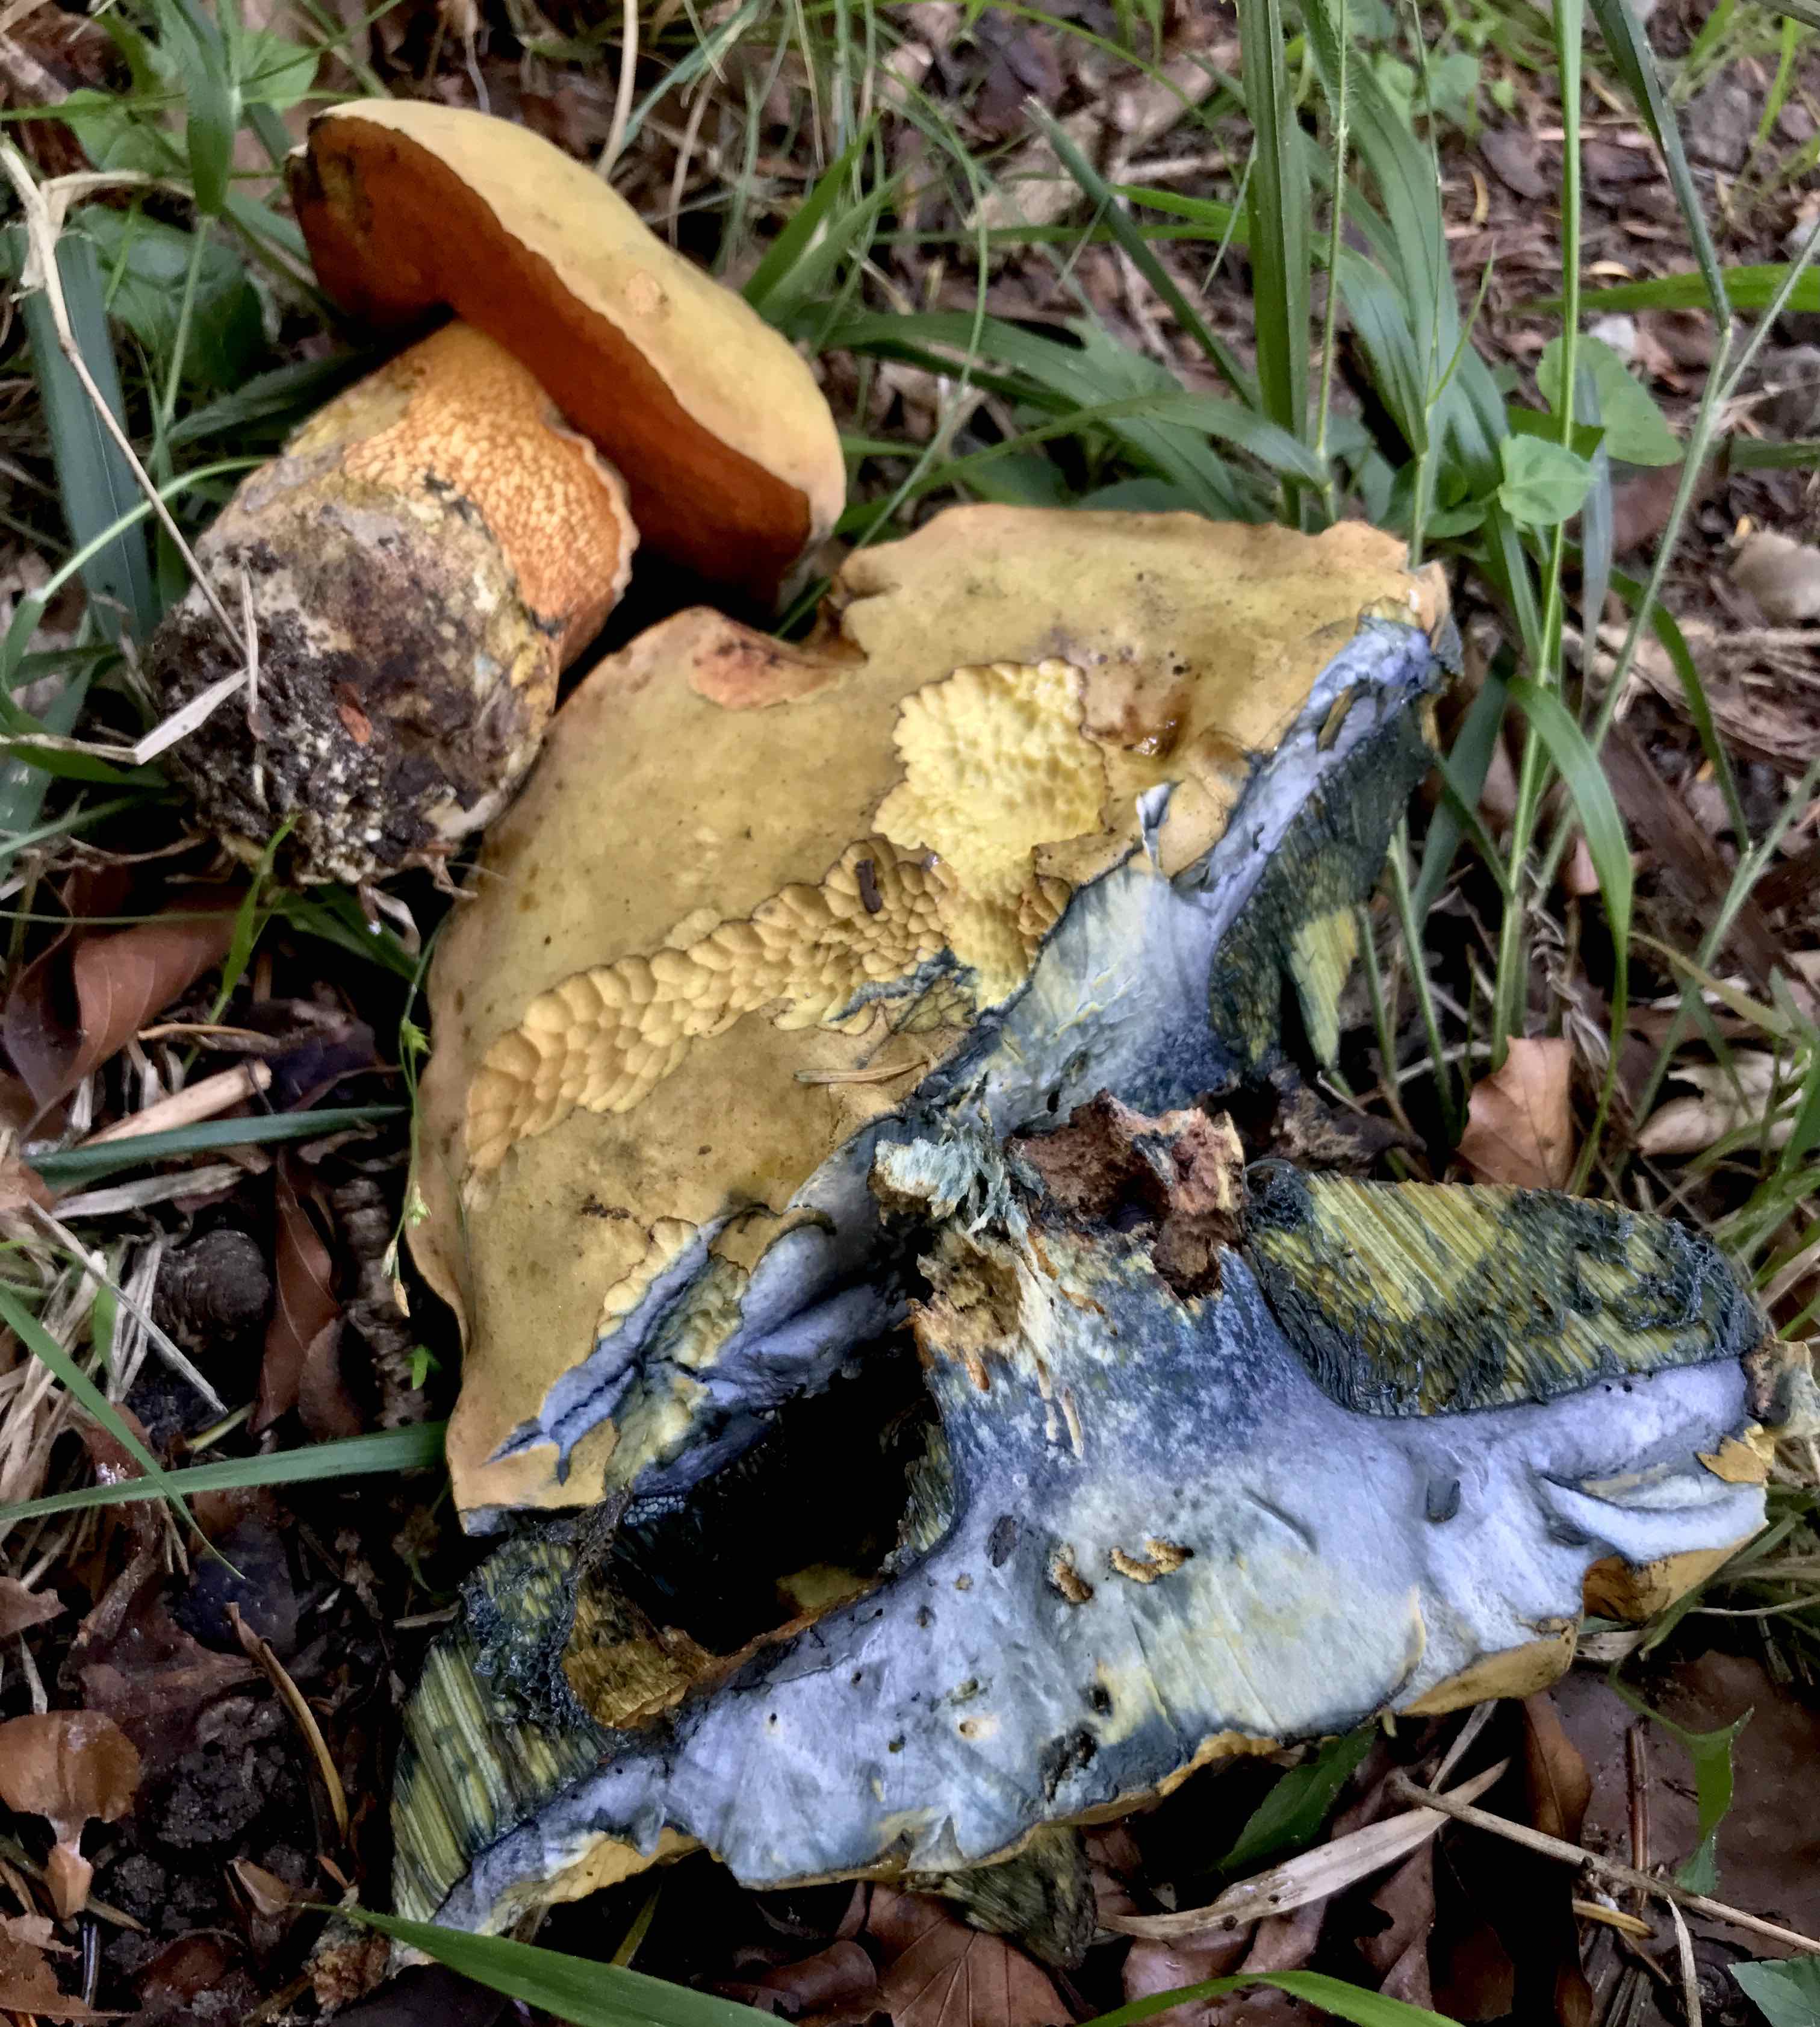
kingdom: Fungi
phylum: Basidiomycota
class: Agaricomycetes
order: Boletales
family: Boletaceae
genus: Suillellus
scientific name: Suillellus luridus
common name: netstokket indigorørhat
